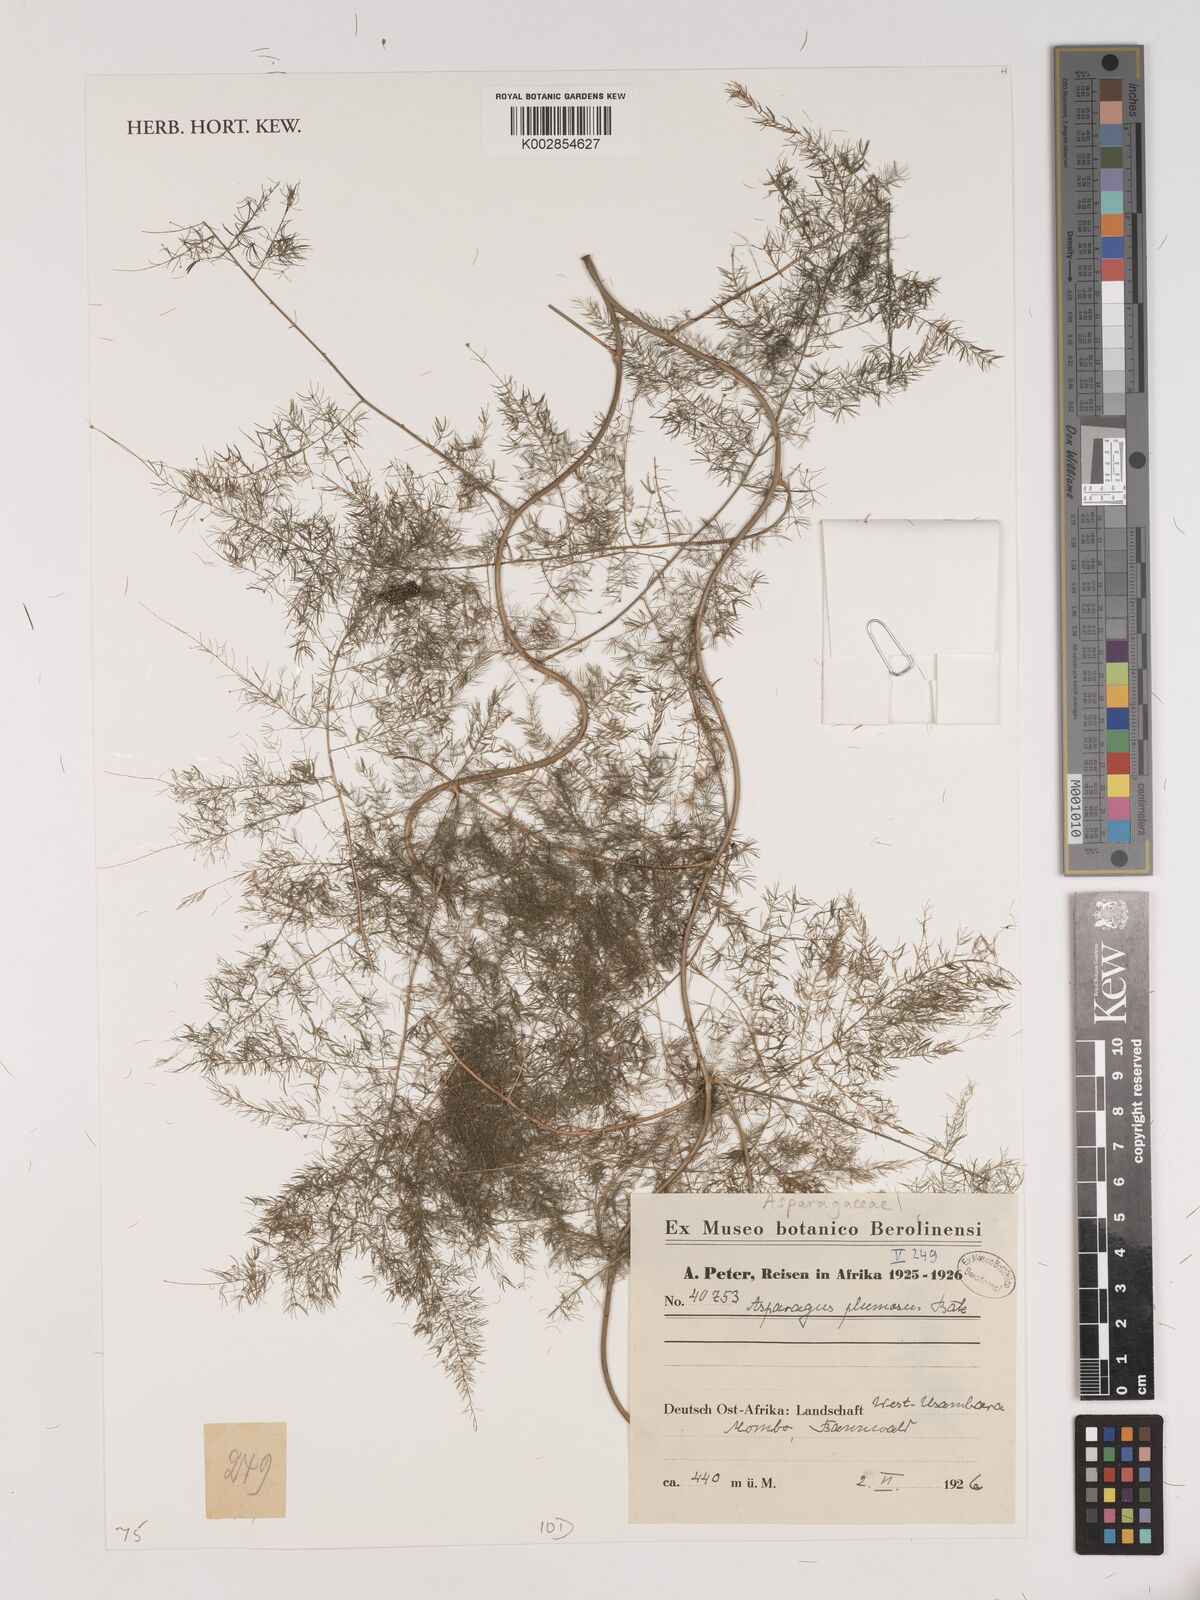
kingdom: Plantae
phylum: Tracheophyta
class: Liliopsida
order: Asparagales
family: Asparagaceae
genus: Asparagus
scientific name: Asparagus setaceus
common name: Common asparagus fern
